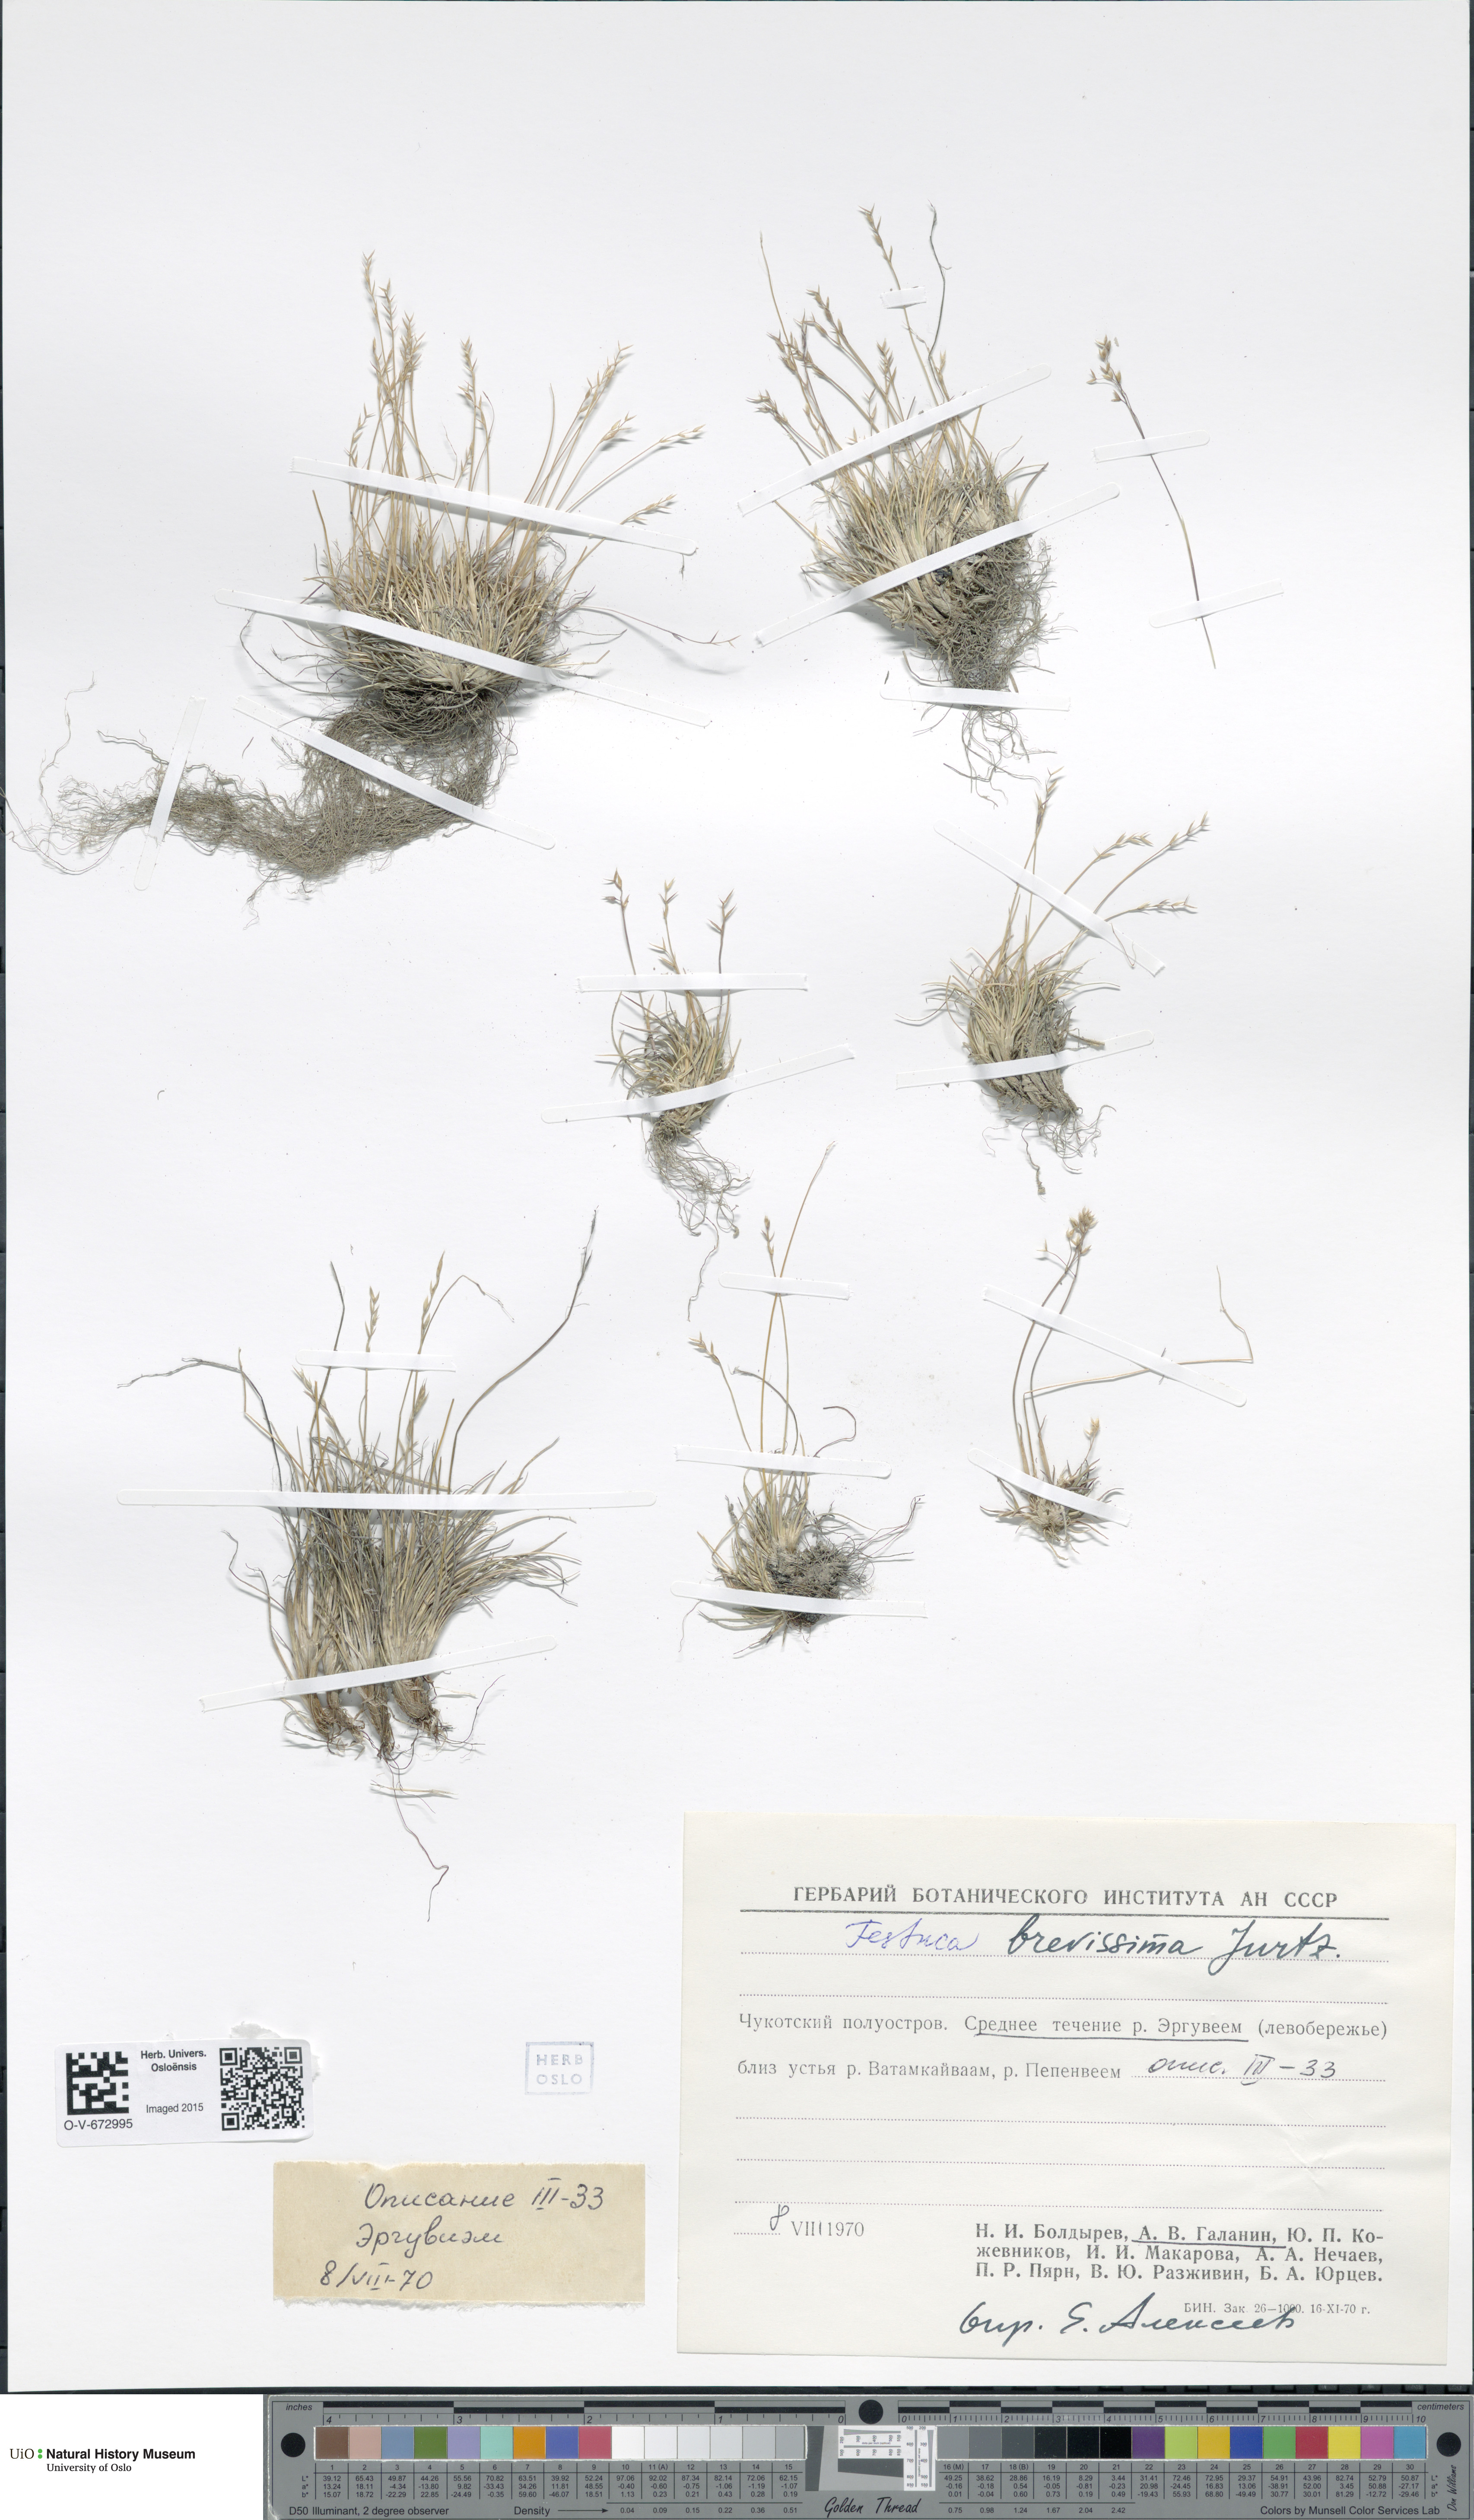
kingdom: Plantae
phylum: Tracheophyta
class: Liliopsida
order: Poales
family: Poaceae
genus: Festuca
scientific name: Festuca brevissima
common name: Alaska fescue
